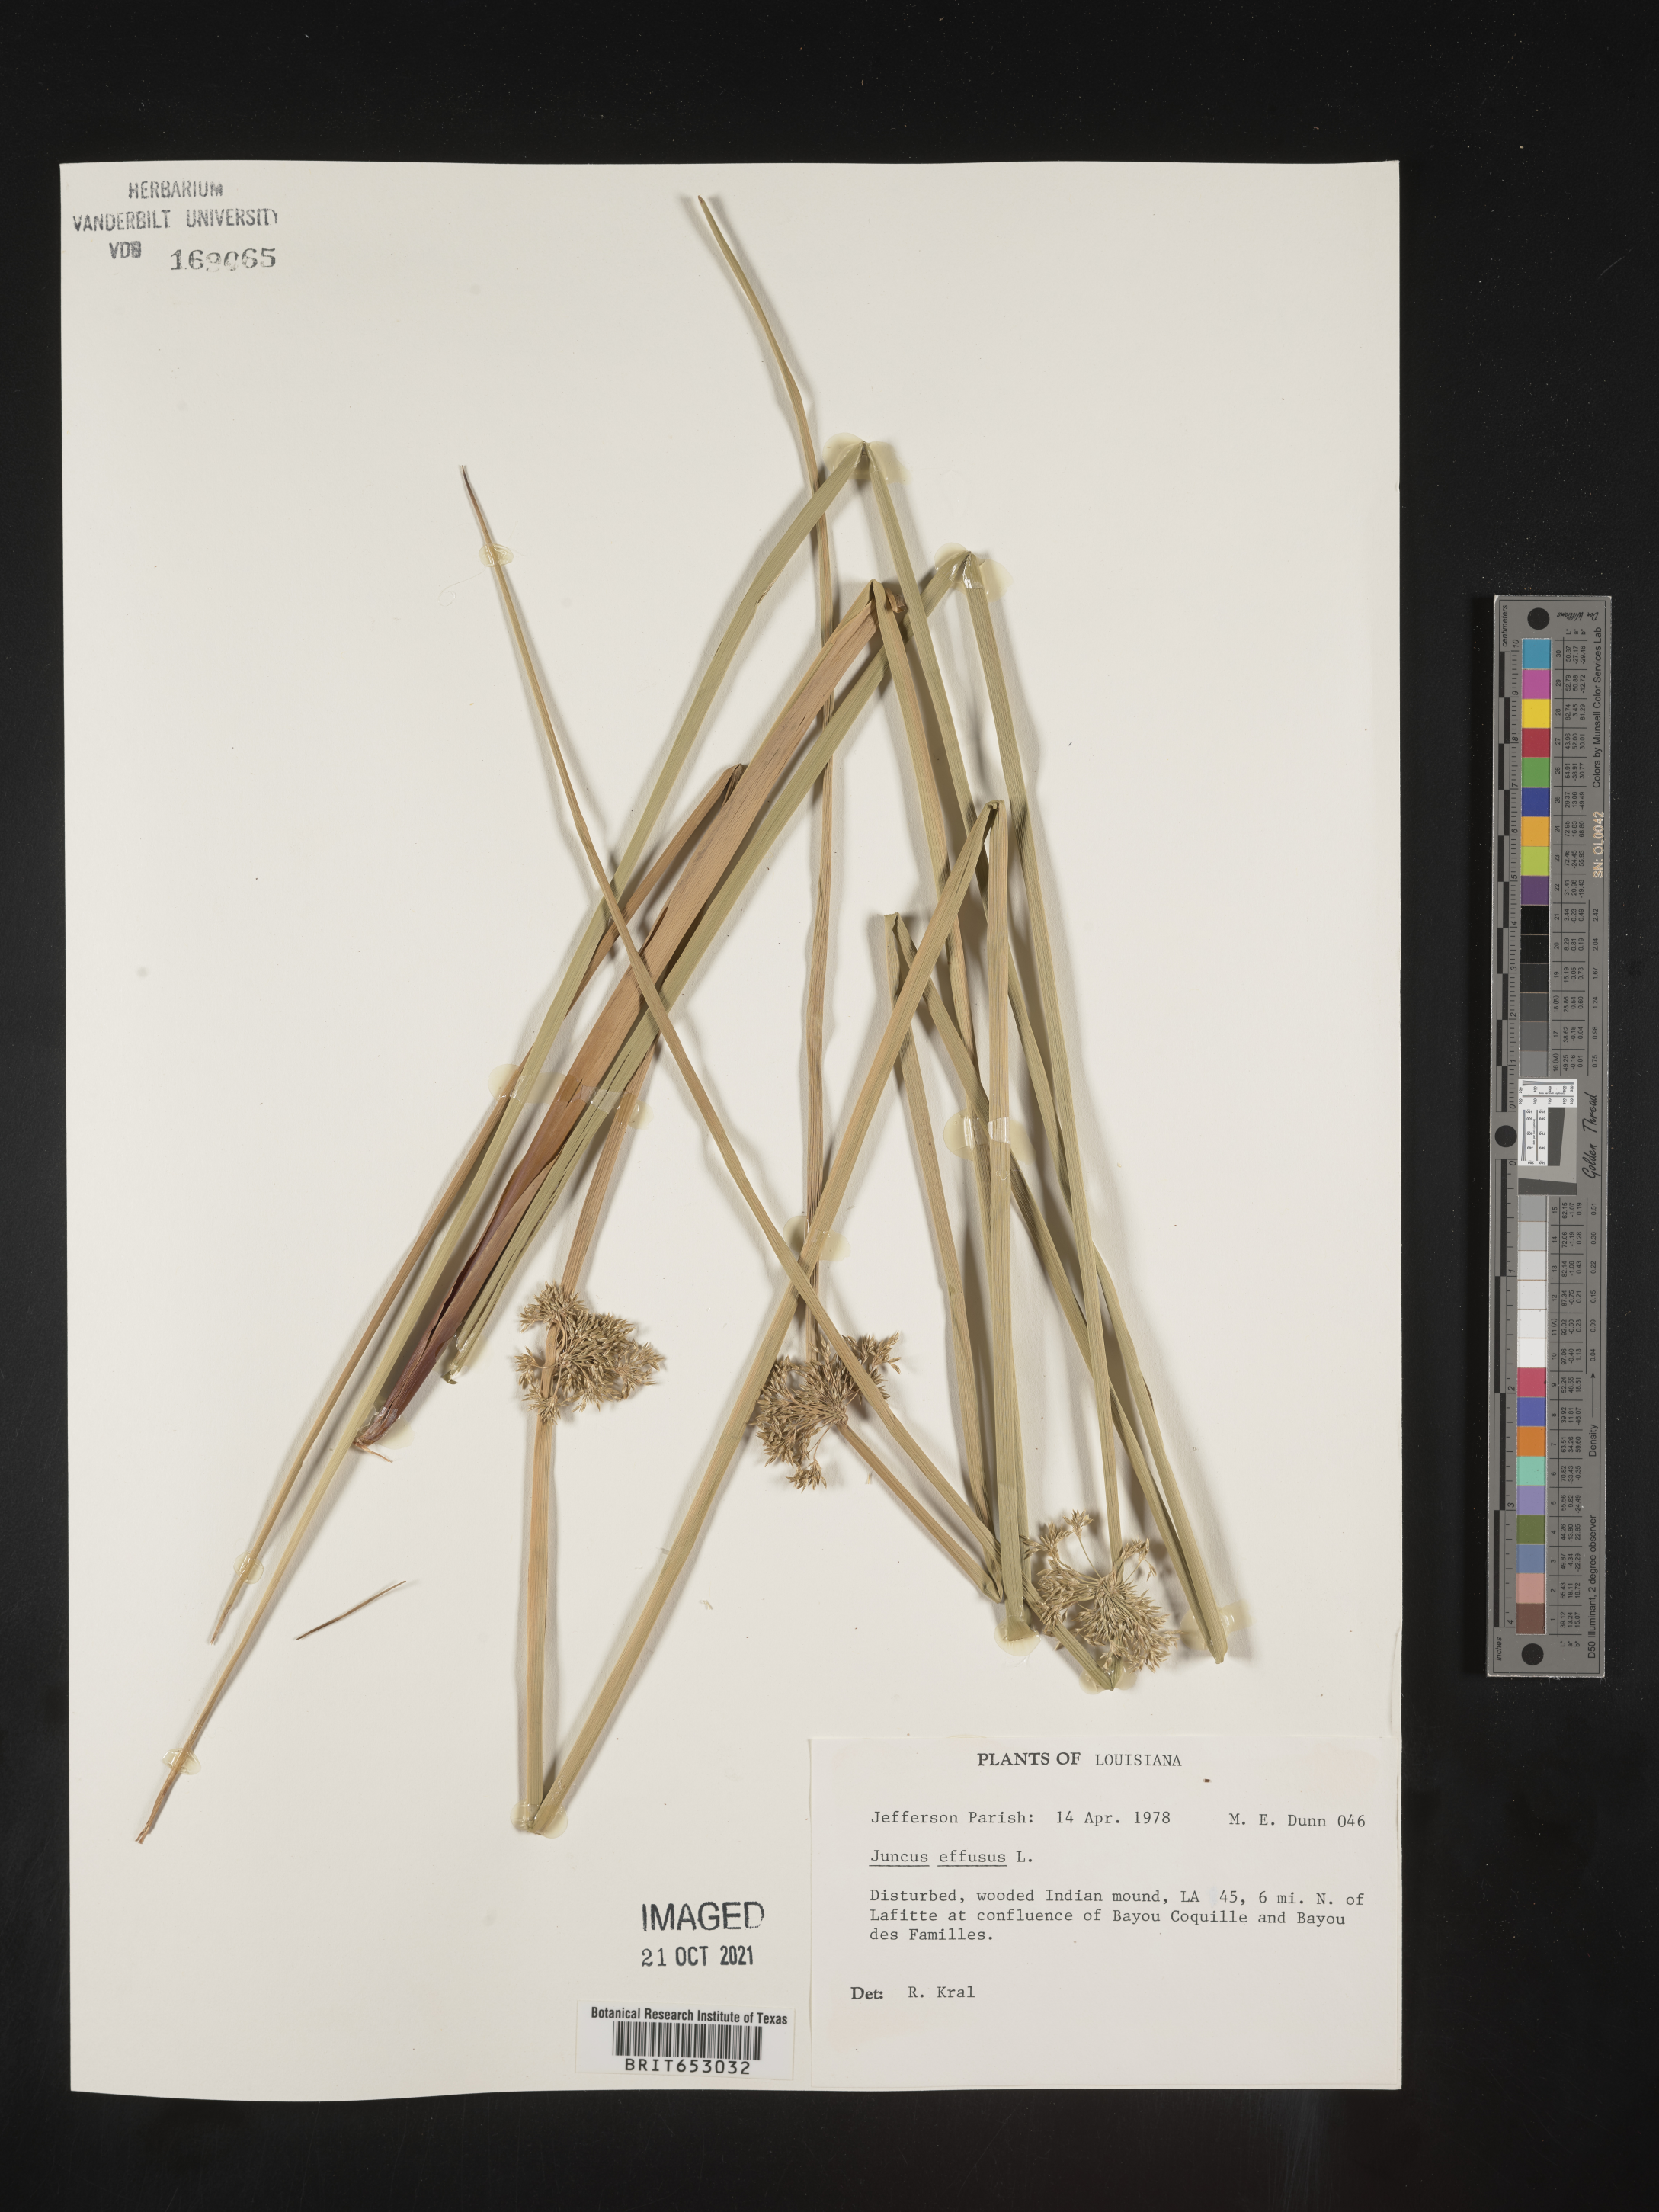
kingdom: Plantae
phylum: Tracheophyta
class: Liliopsida
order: Poales
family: Juncaceae
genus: Juncus
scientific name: Juncus effusus
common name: Soft rush
